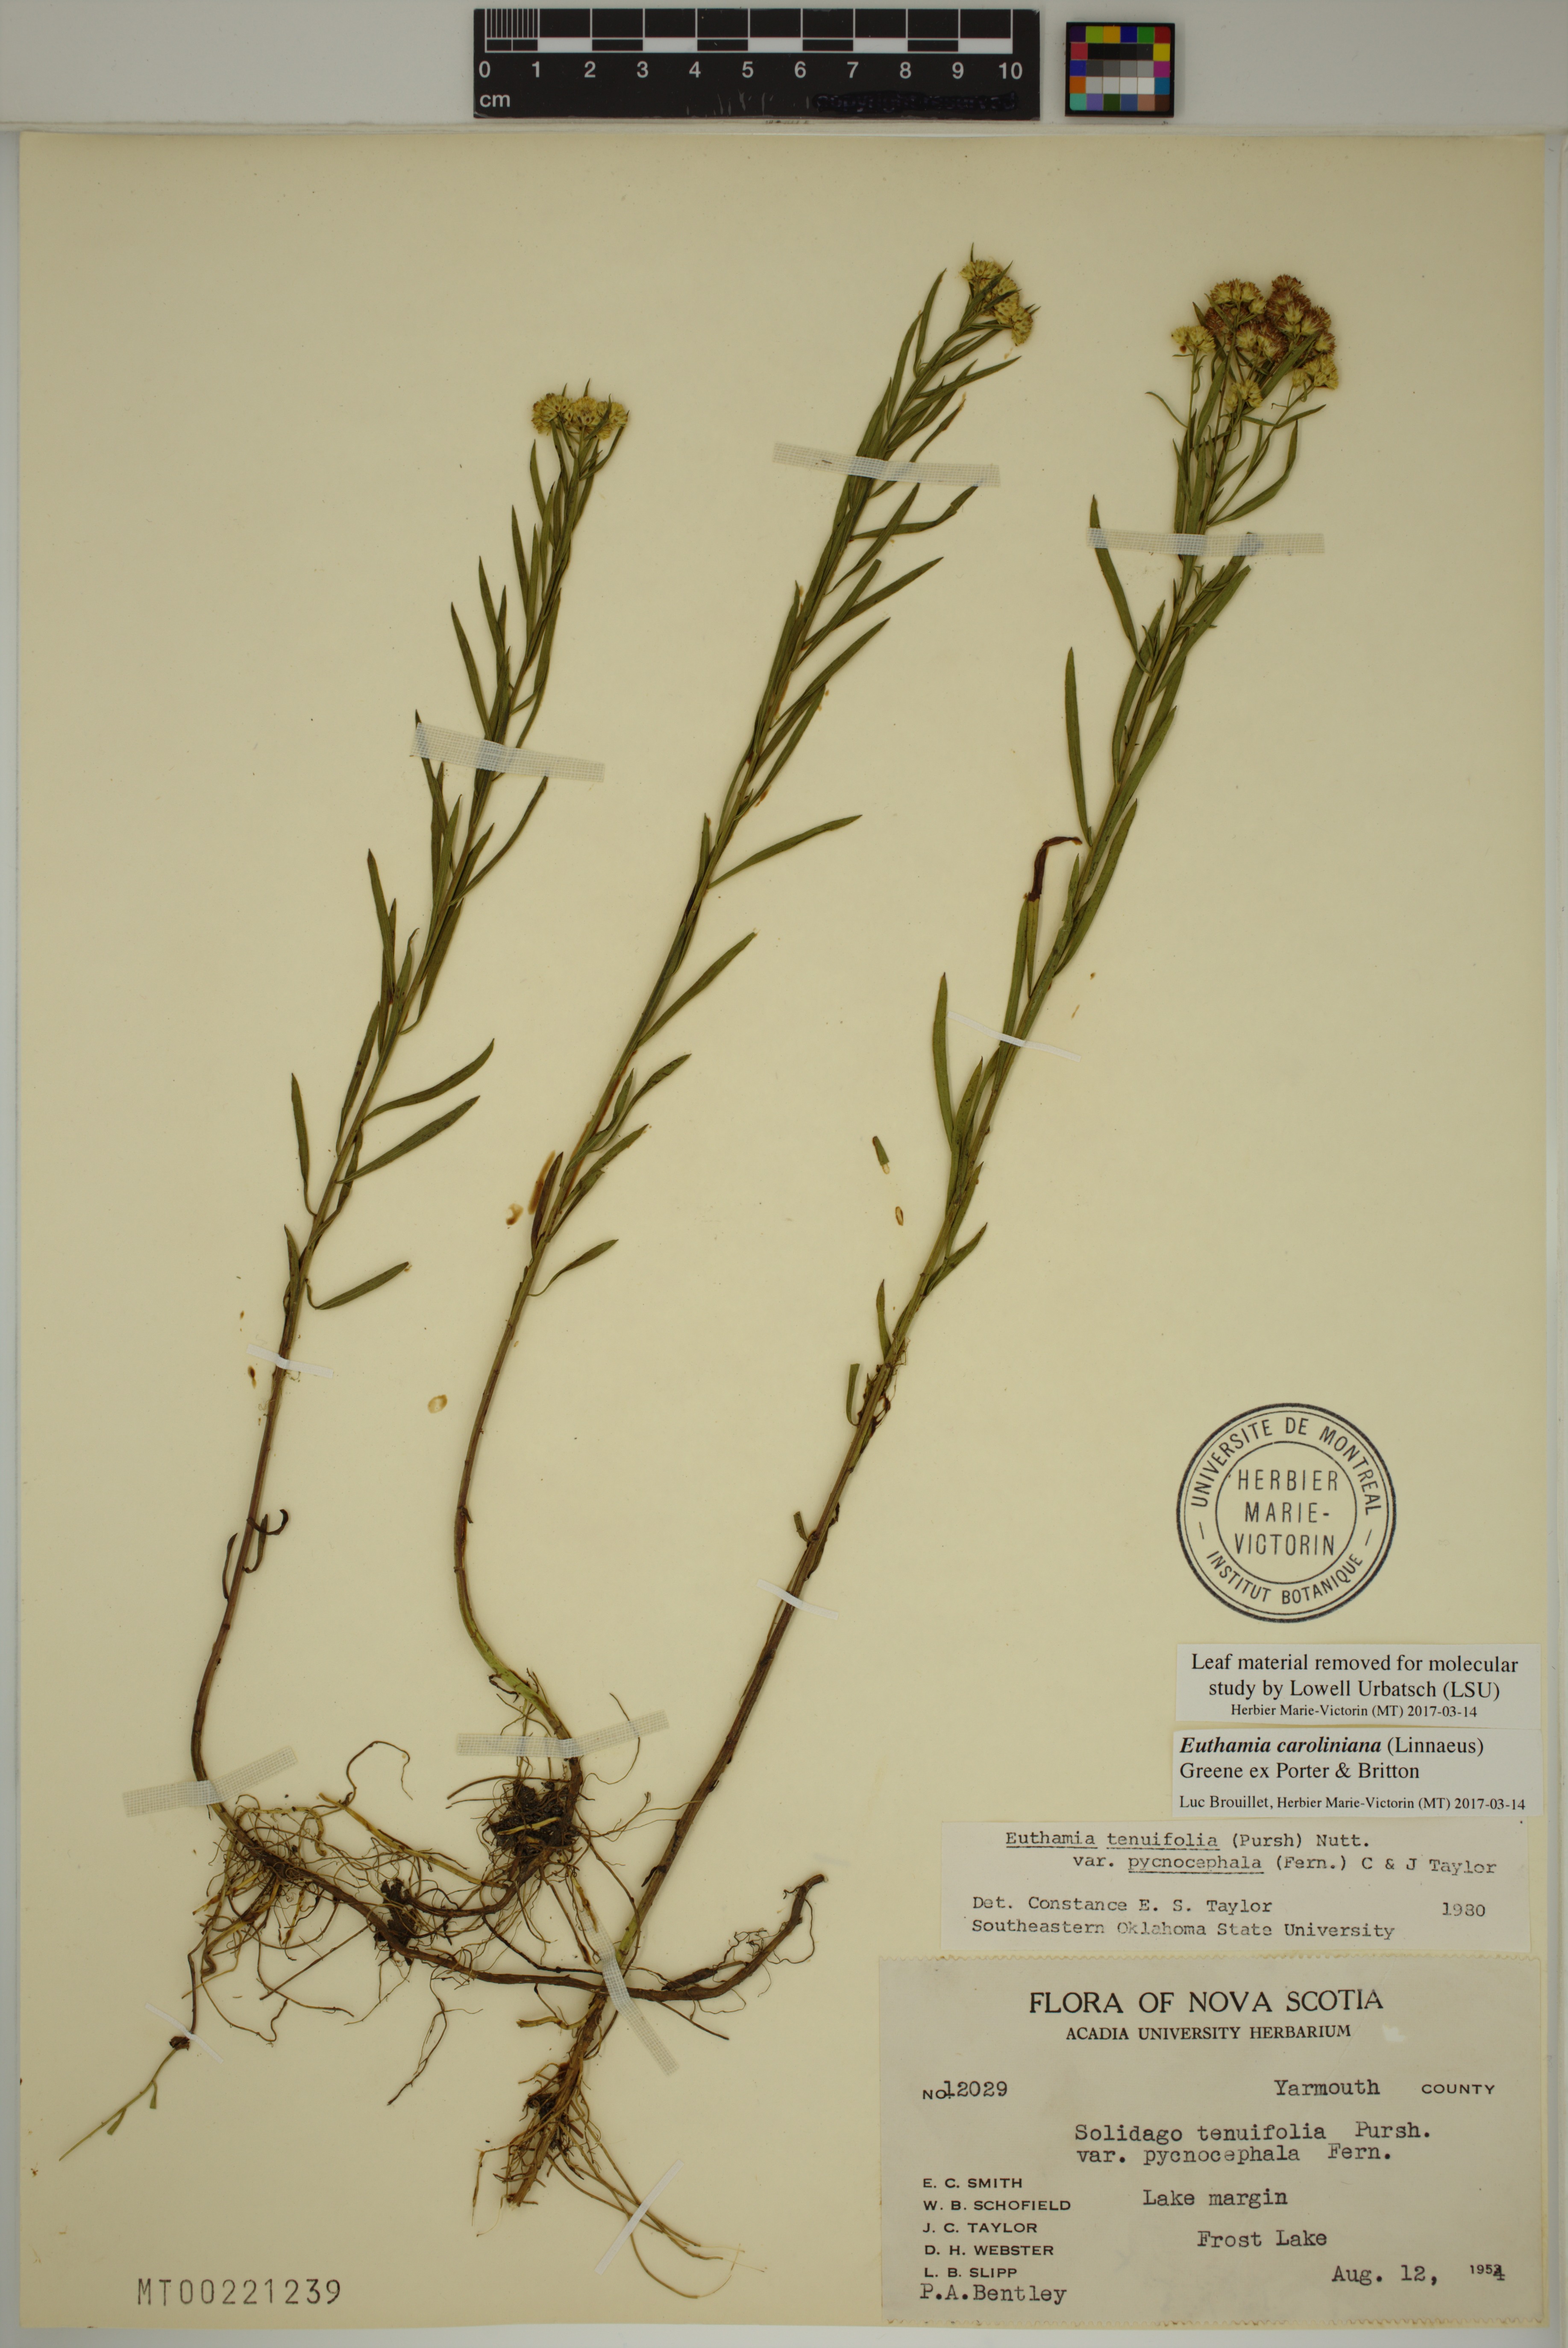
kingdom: Plantae
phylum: Tracheophyta
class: Magnoliopsida
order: Asterales
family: Asteraceae
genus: Euthamia
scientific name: Euthamia galetorum
